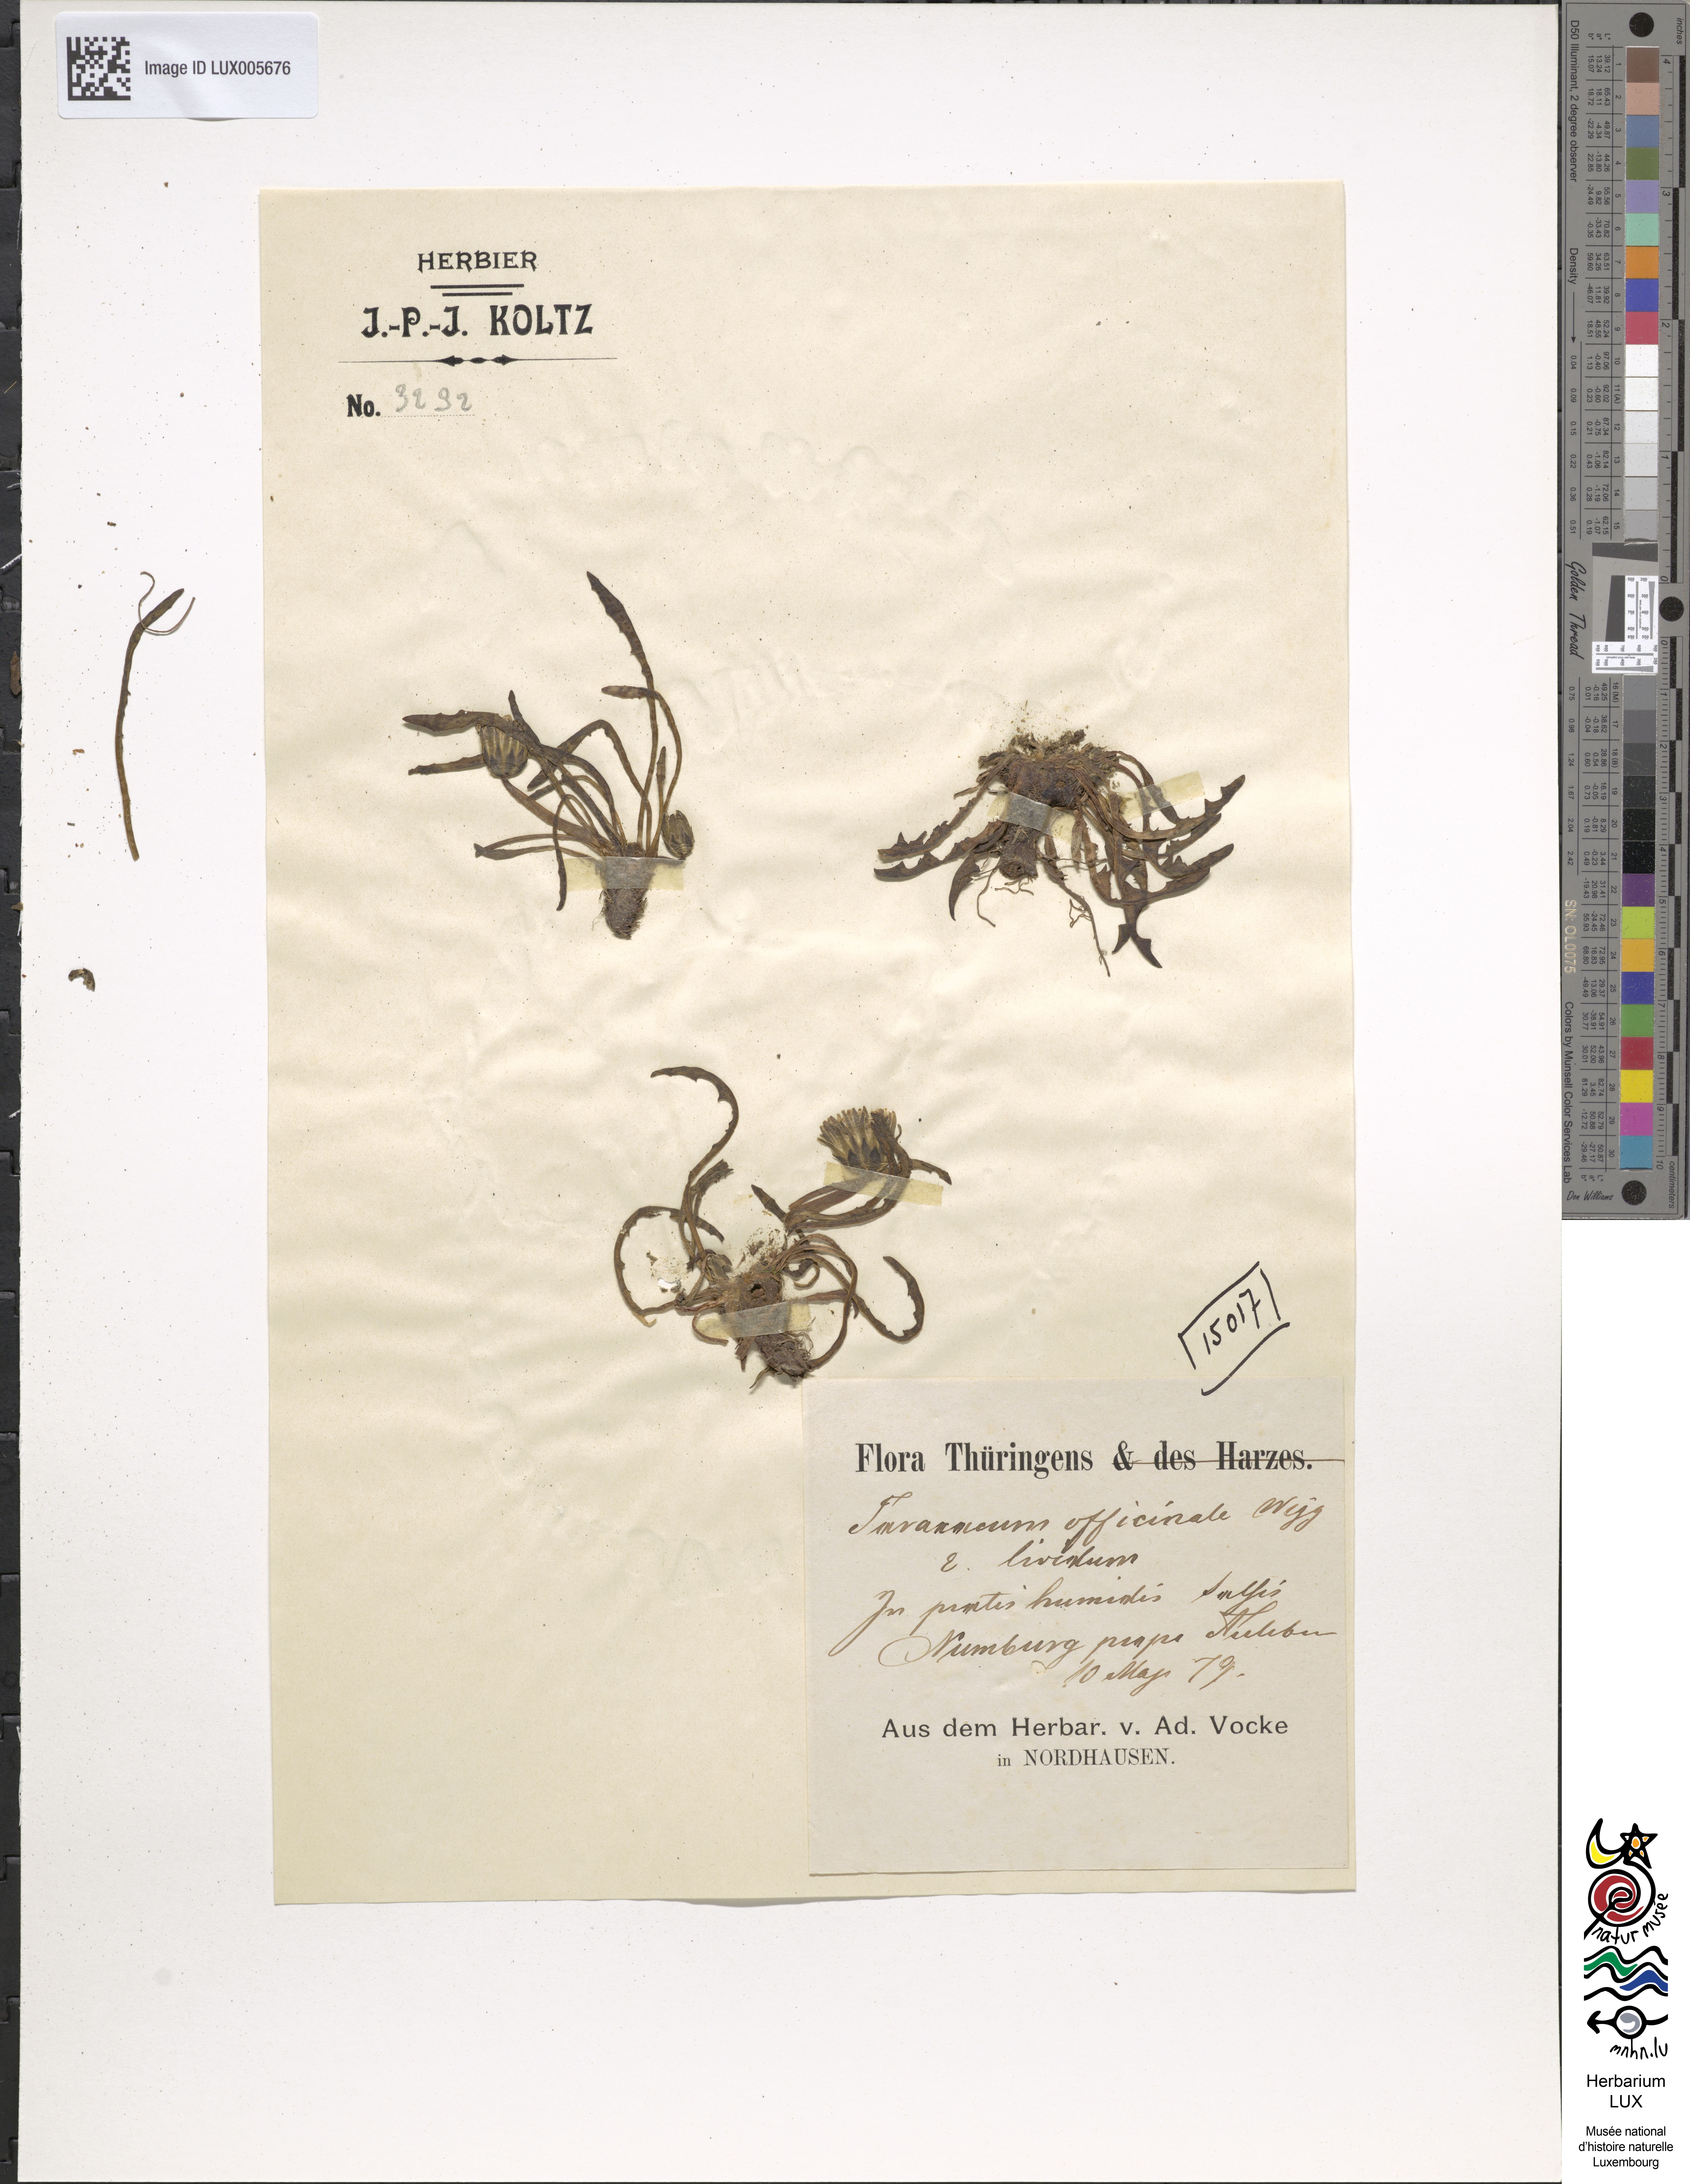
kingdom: Plantae
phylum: Tracheophyta
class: Magnoliopsida
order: Asterales
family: Asteraceae
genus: Taraxacum
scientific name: Taraxacum palustre
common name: Marsh dandelion
